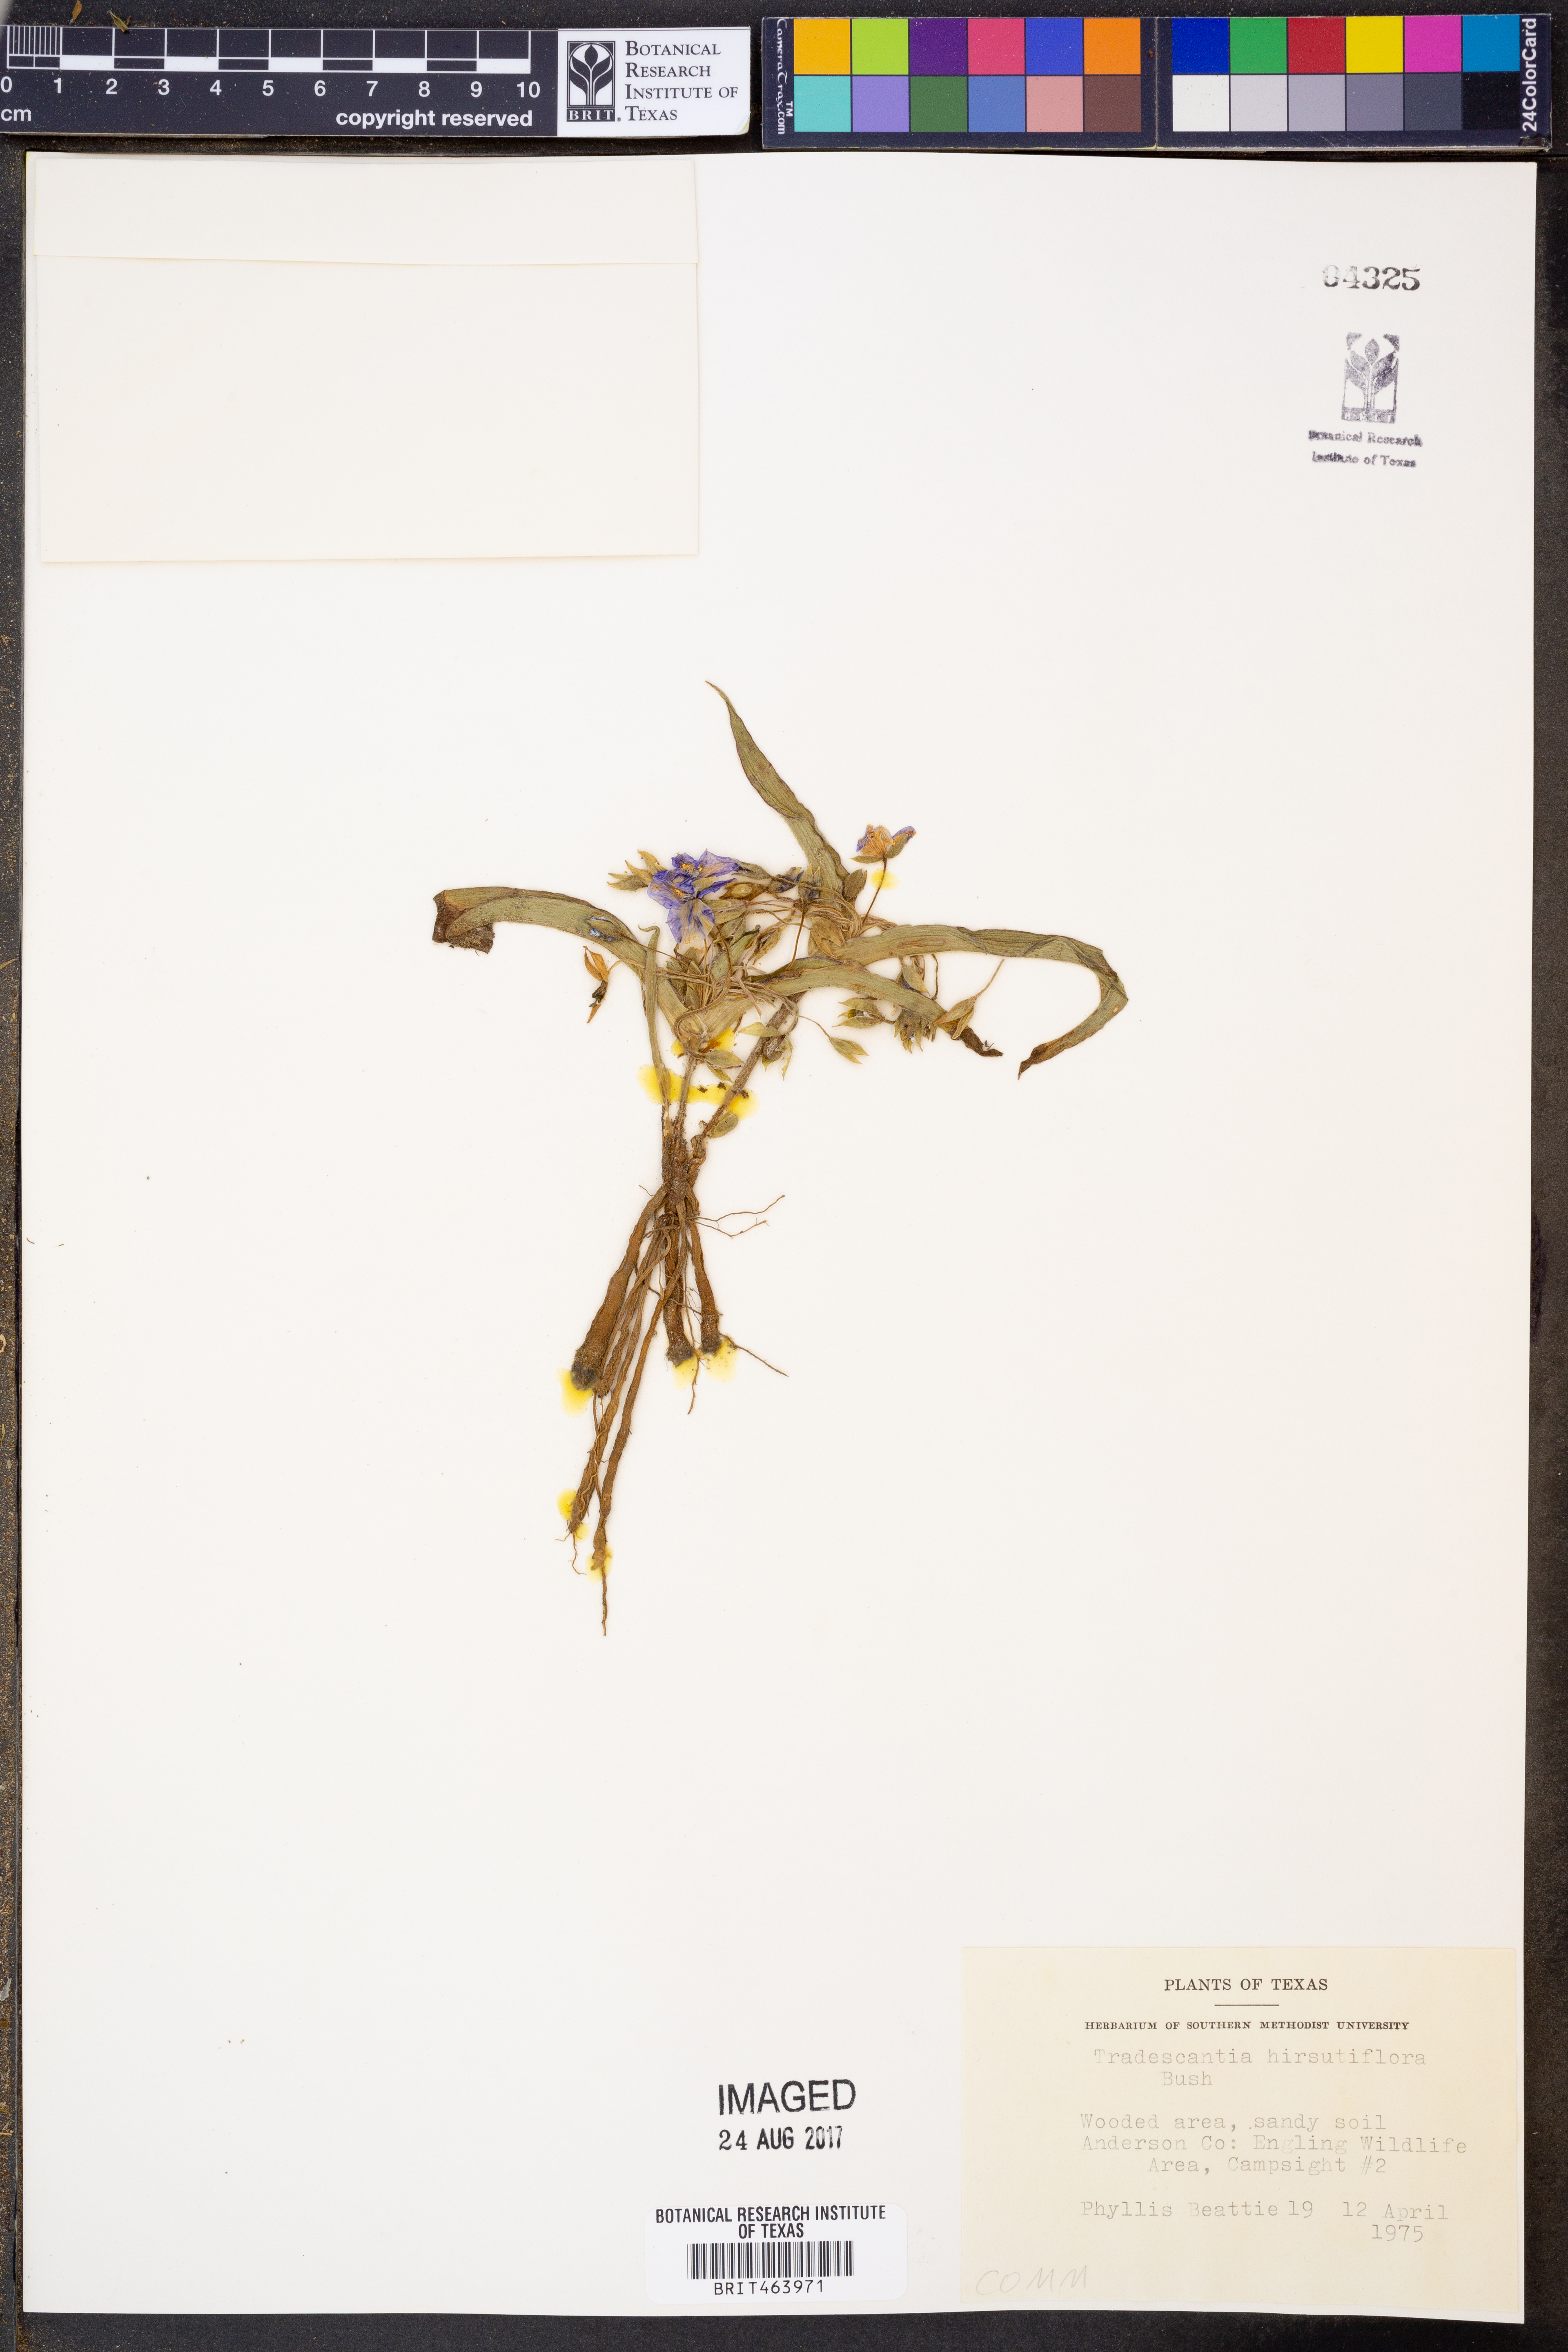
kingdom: Plantae
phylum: Tracheophyta
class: Liliopsida
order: Commelinales
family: Commelinaceae
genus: Tradescantia
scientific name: Tradescantia hirsutiflora
